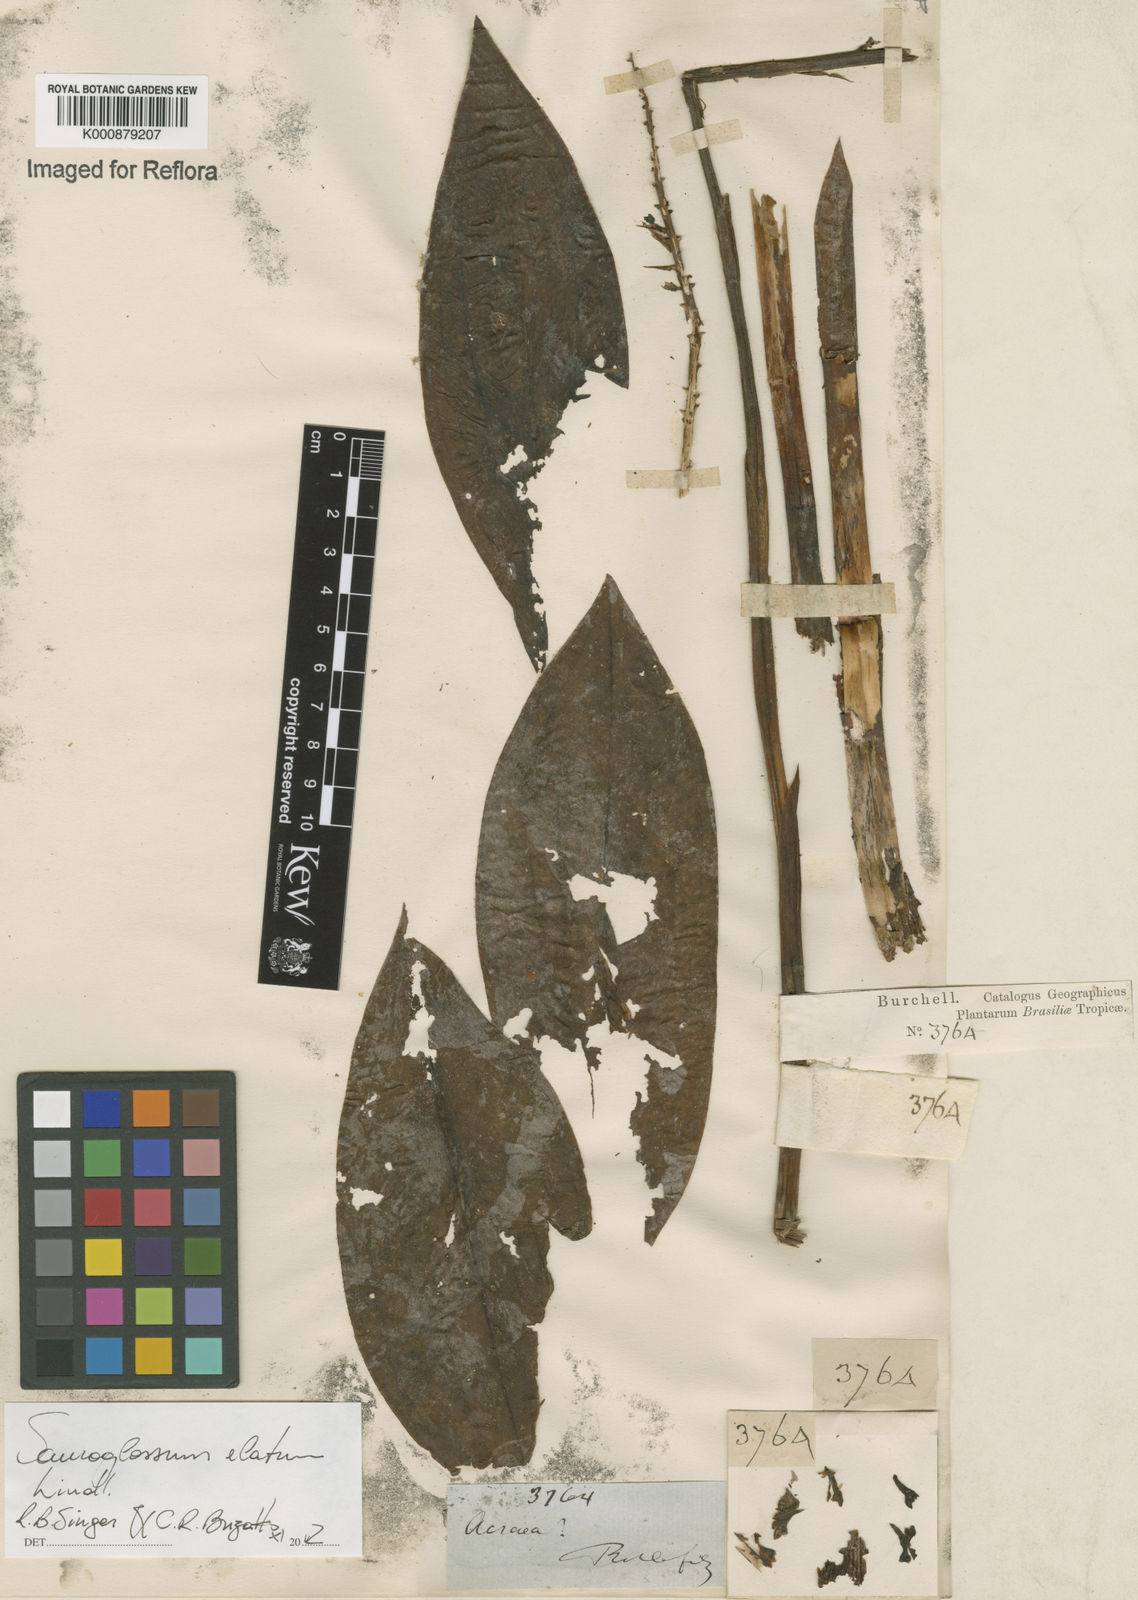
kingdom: Plantae
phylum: Tracheophyta
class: Liliopsida
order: Asparagales
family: Orchidaceae
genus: Sauroglossum
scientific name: Sauroglossum elatum
